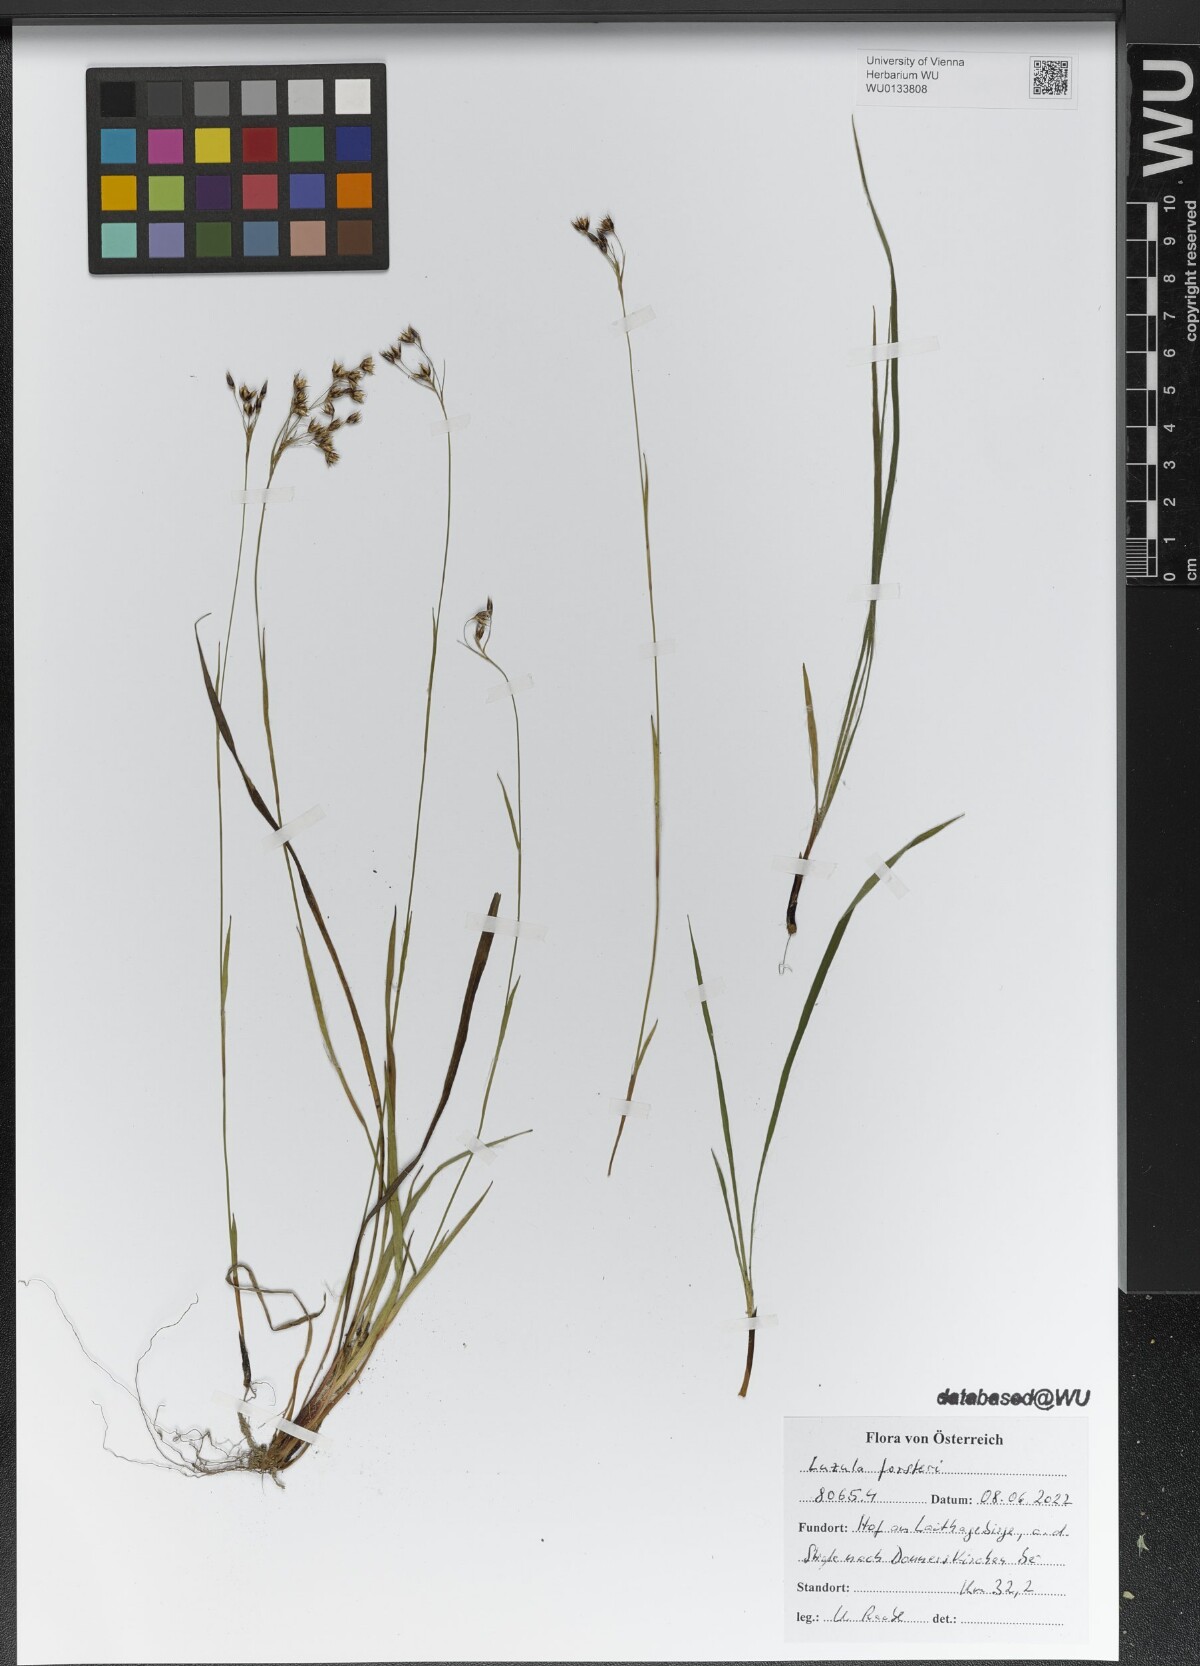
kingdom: Plantae
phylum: Tracheophyta
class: Liliopsida
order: Poales
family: Juncaceae
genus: Luzula
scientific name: Luzula forsteri
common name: Southern wood-rush
